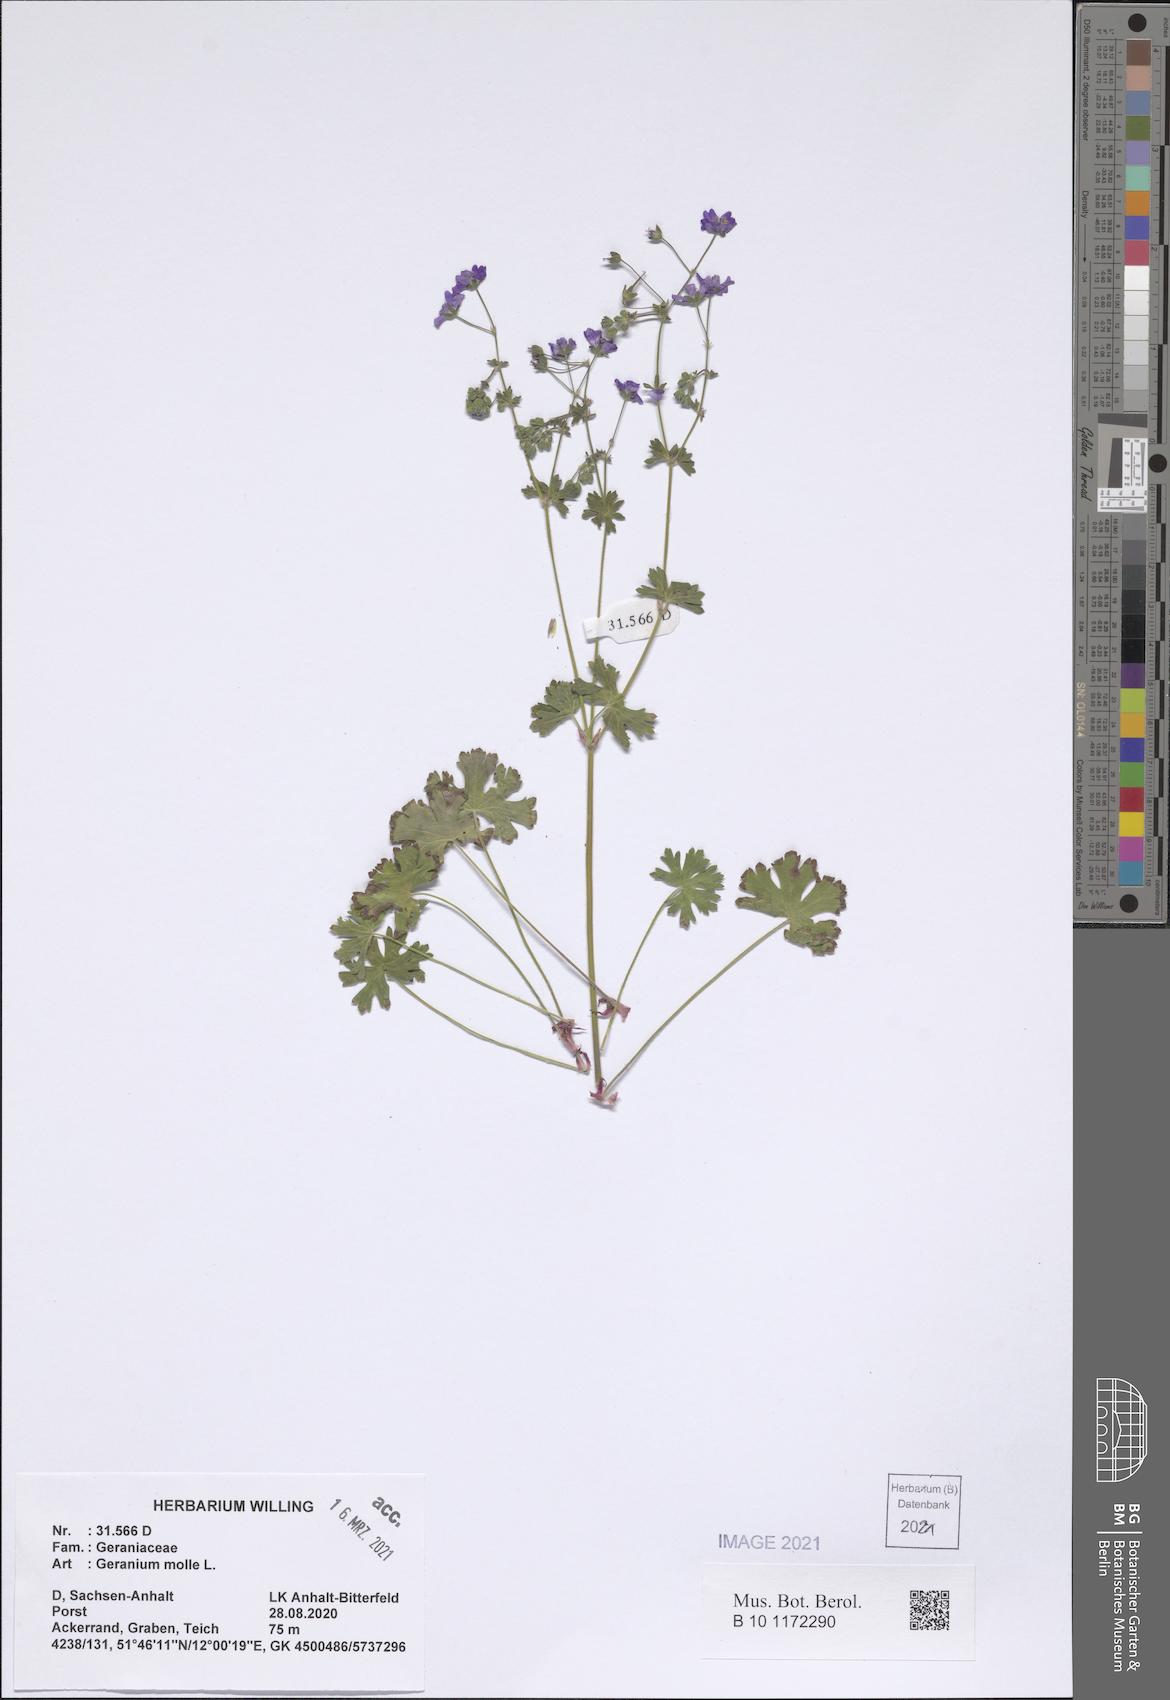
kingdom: Plantae
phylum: Tracheophyta
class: Magnoliopsida
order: Geraniales
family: Geraniaceae
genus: Geranium
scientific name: Geranium molle
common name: Dove's-foot crane's-bill
